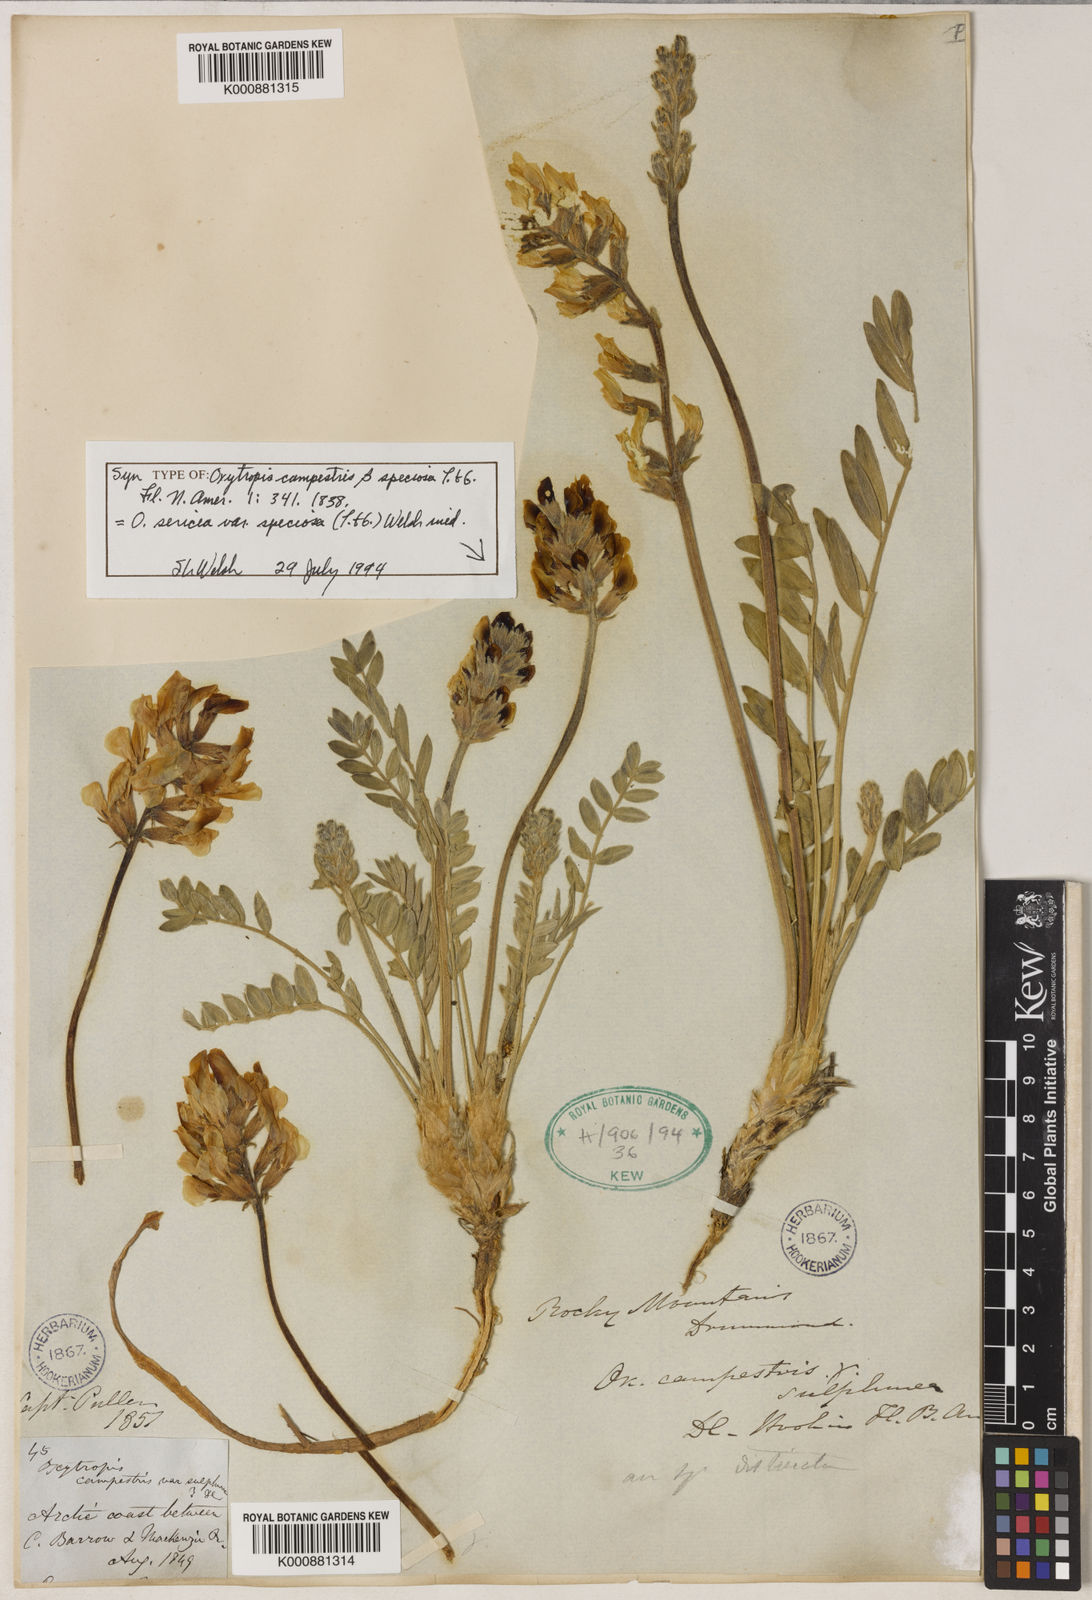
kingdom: Plantae
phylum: Tracheophyta
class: Magnoliopsida
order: Fabales
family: Fabaceae
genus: Oxytropis
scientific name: Oxytropis campestris
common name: Field locoweed
